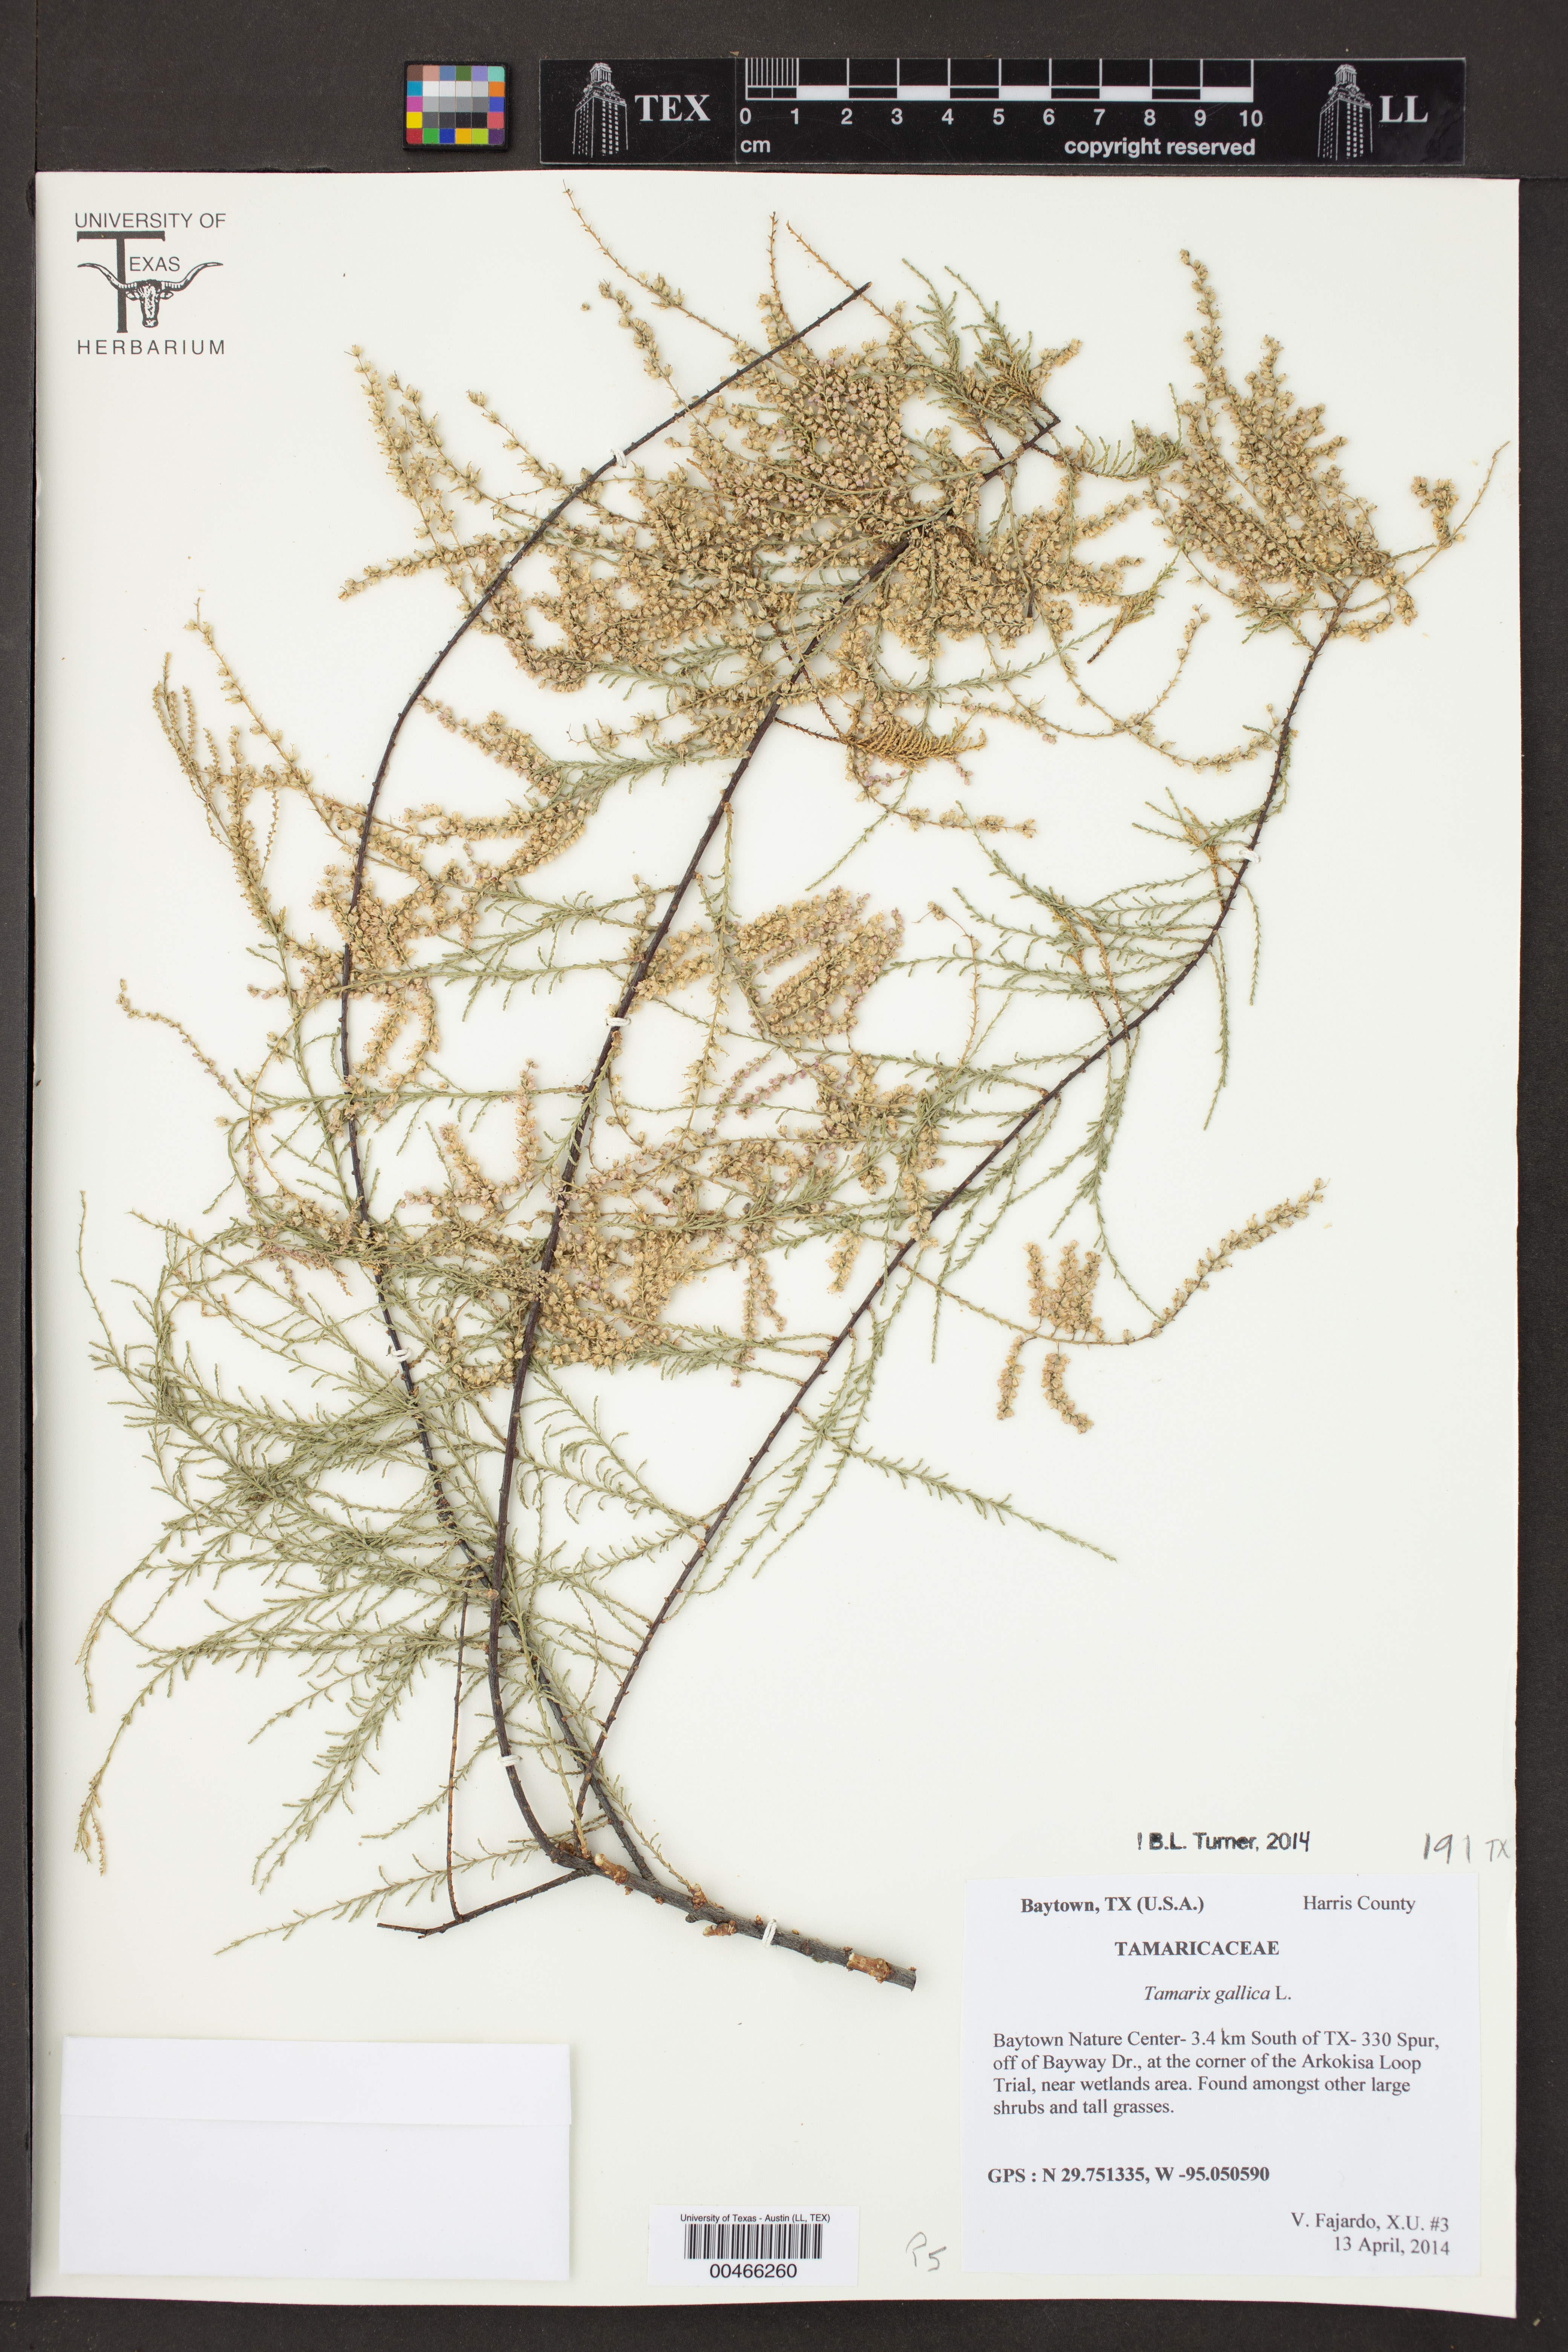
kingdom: Plantae
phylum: Tracheophyta
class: Magnoliopsida
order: Caryophyllales
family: Tamaricaceae
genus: Tamarix
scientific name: Tamarix gallica
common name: Tamarisk
